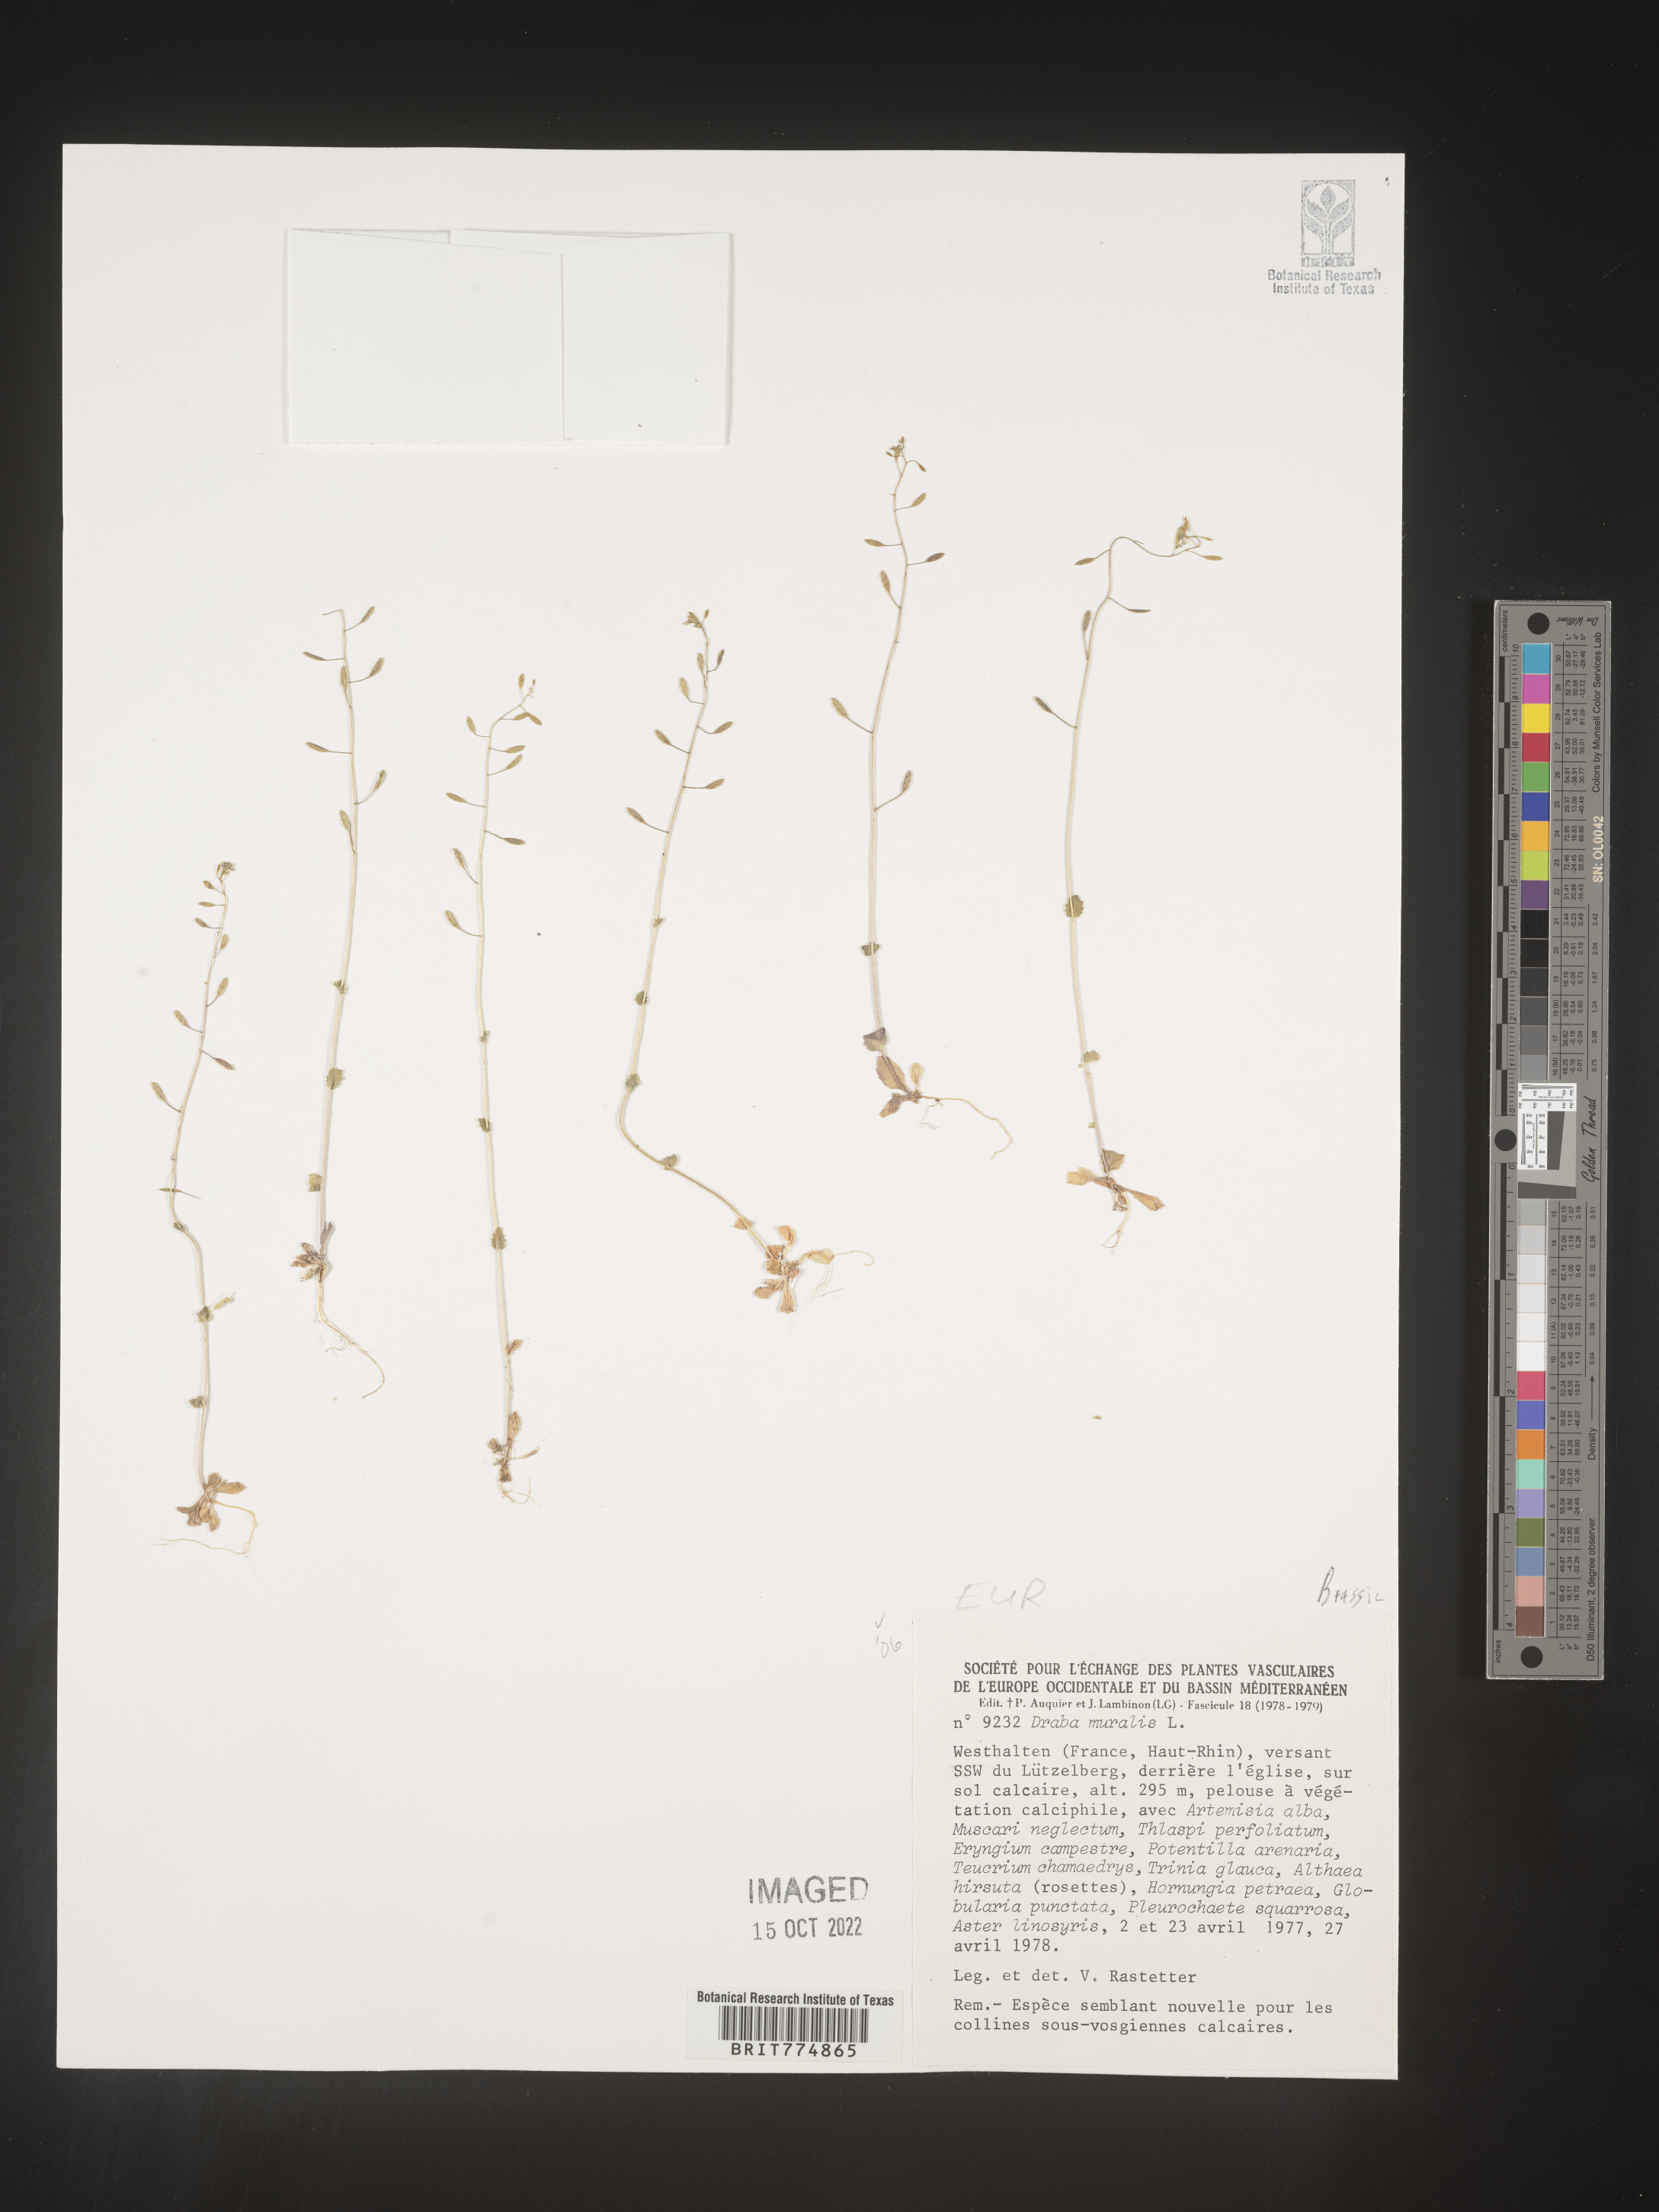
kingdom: Plantae
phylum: Tracheophyta
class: Magnoliopsida
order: Brassicales
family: Brassicaceae
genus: Draba
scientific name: Draba
